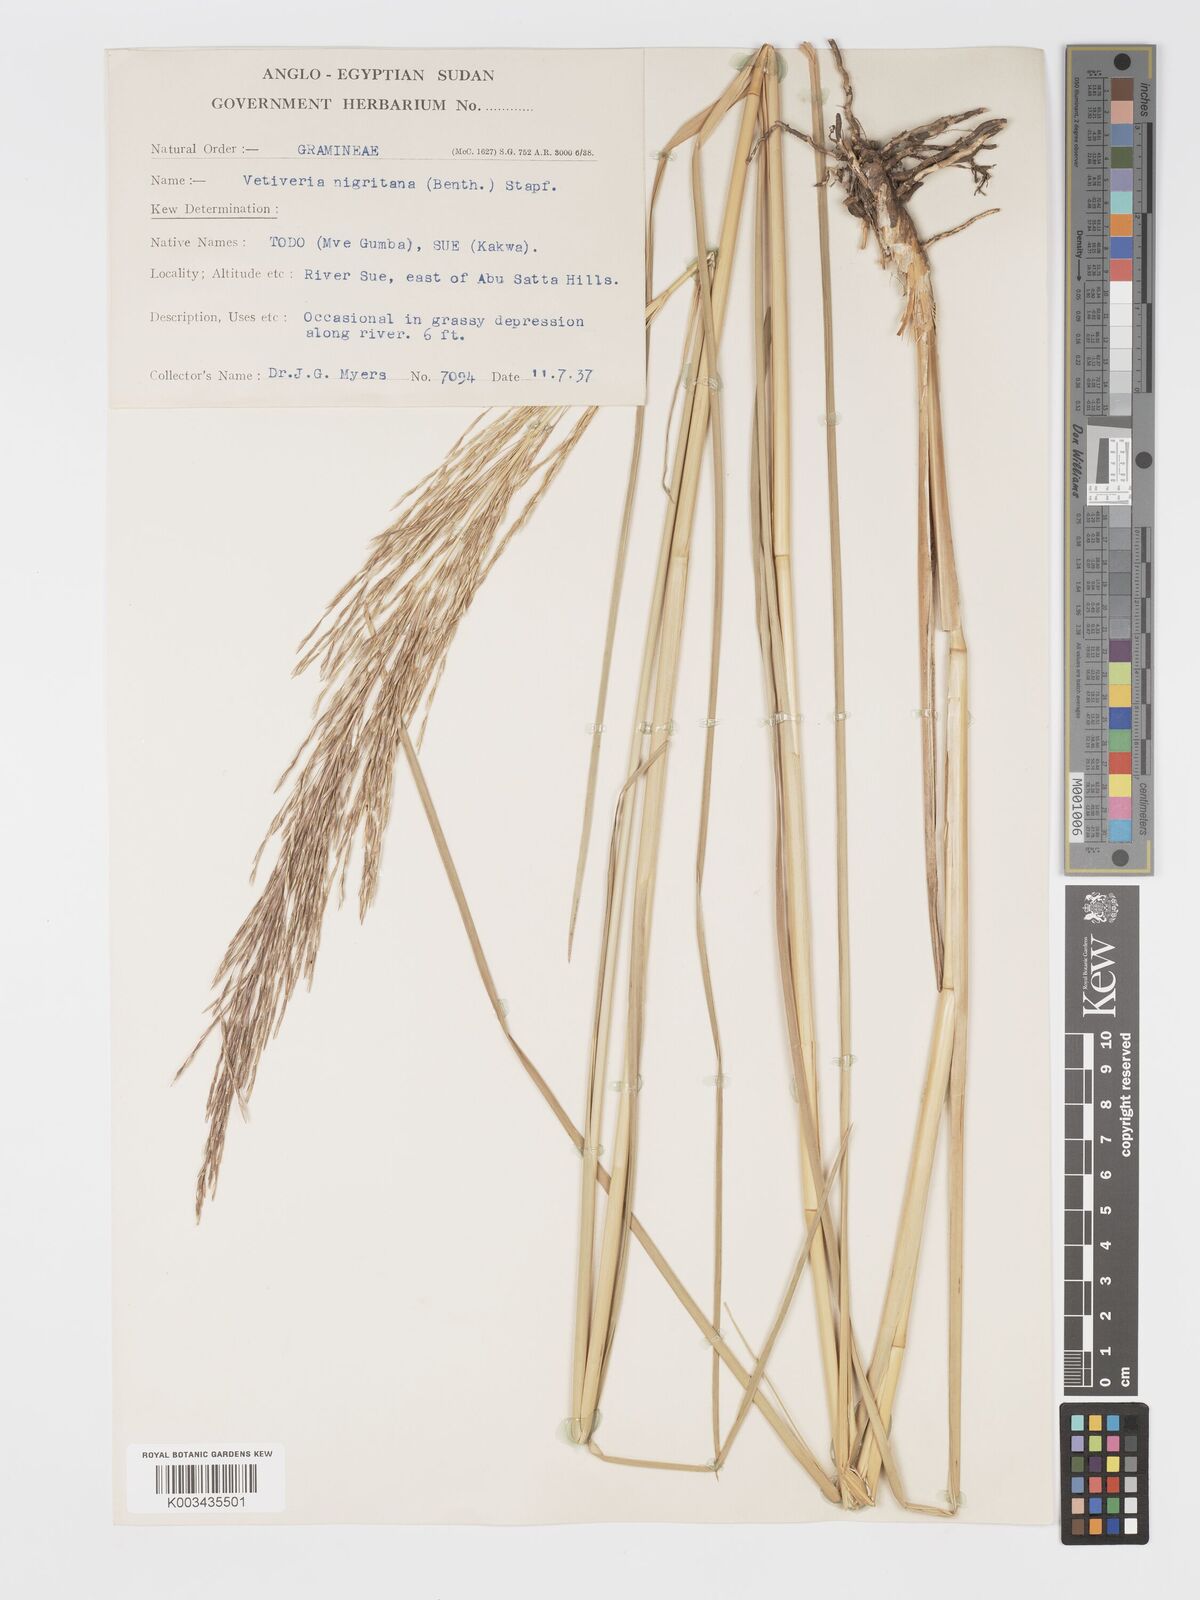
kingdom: Plantae
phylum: Tracheophyta
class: Liliopsida
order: Poales
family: Poaceae
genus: Chrysopogon
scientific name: Chrysopogon nigritanus
